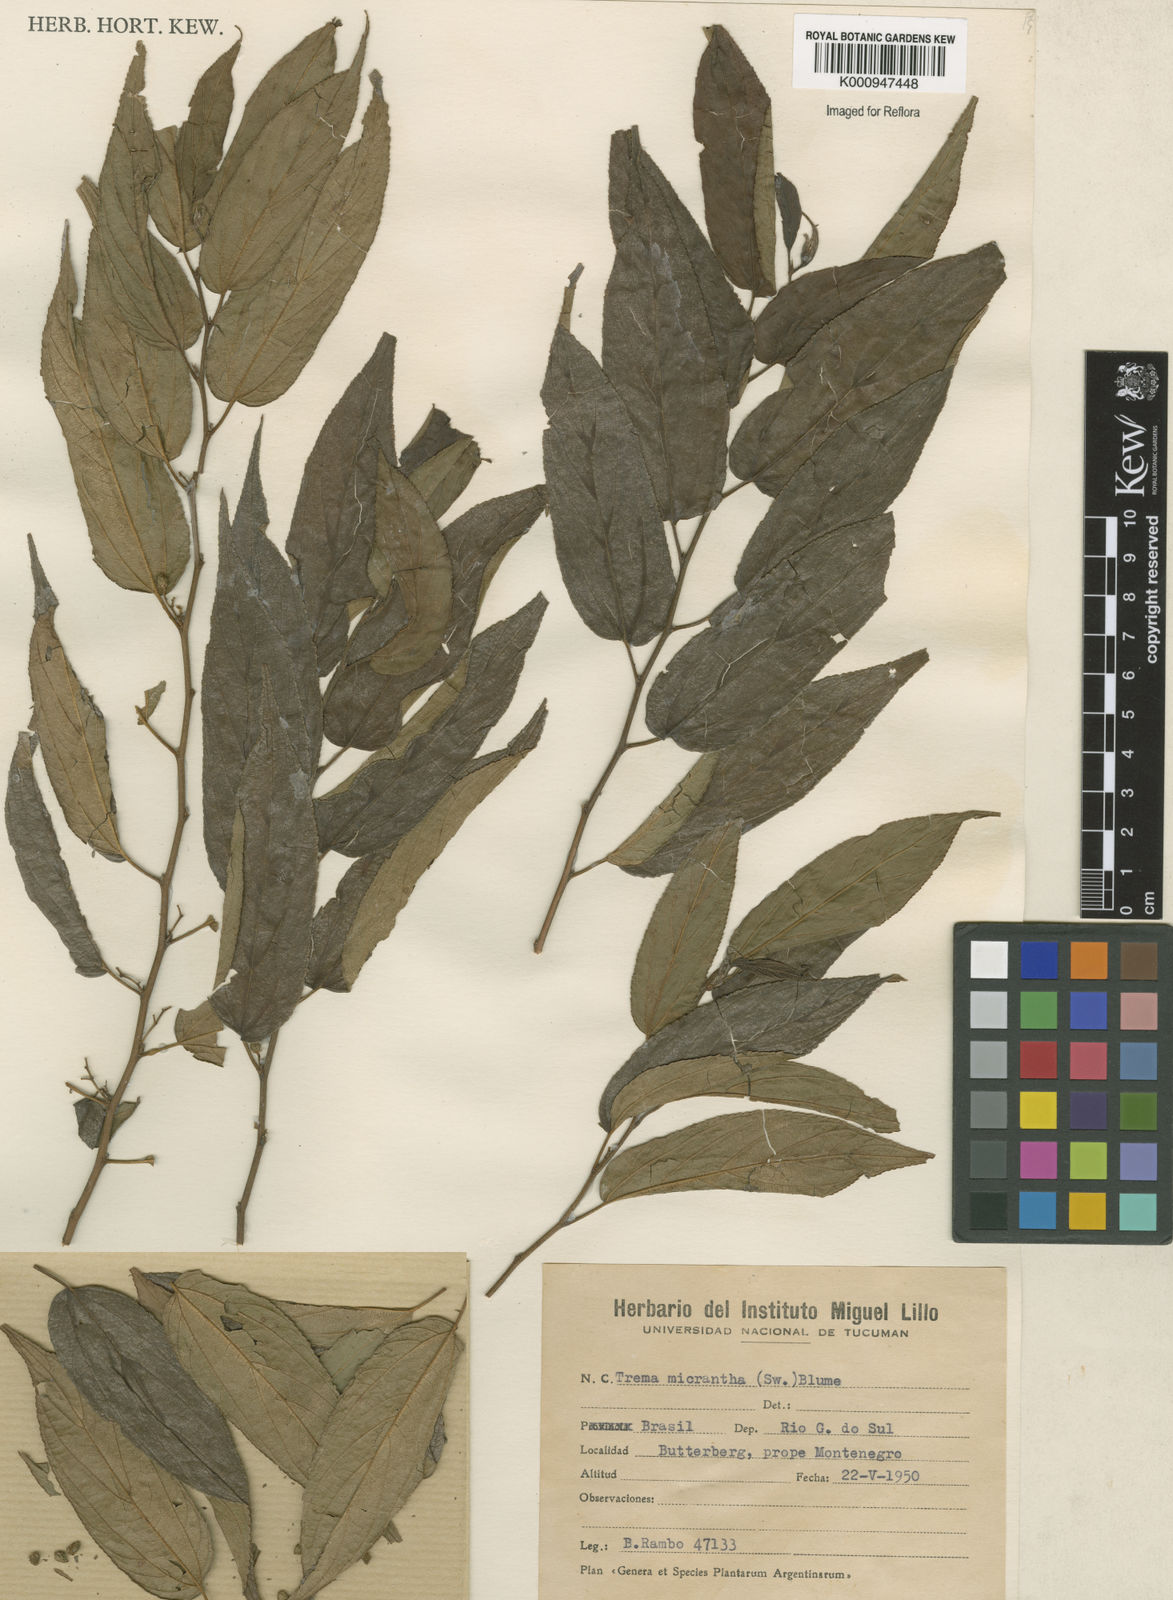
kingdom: Plantae
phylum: Tracheophyta
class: Magnoliopsida
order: Rosales
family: Cannabaceae
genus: Trema
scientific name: Trema micranthum
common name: Jamaican nettletree
